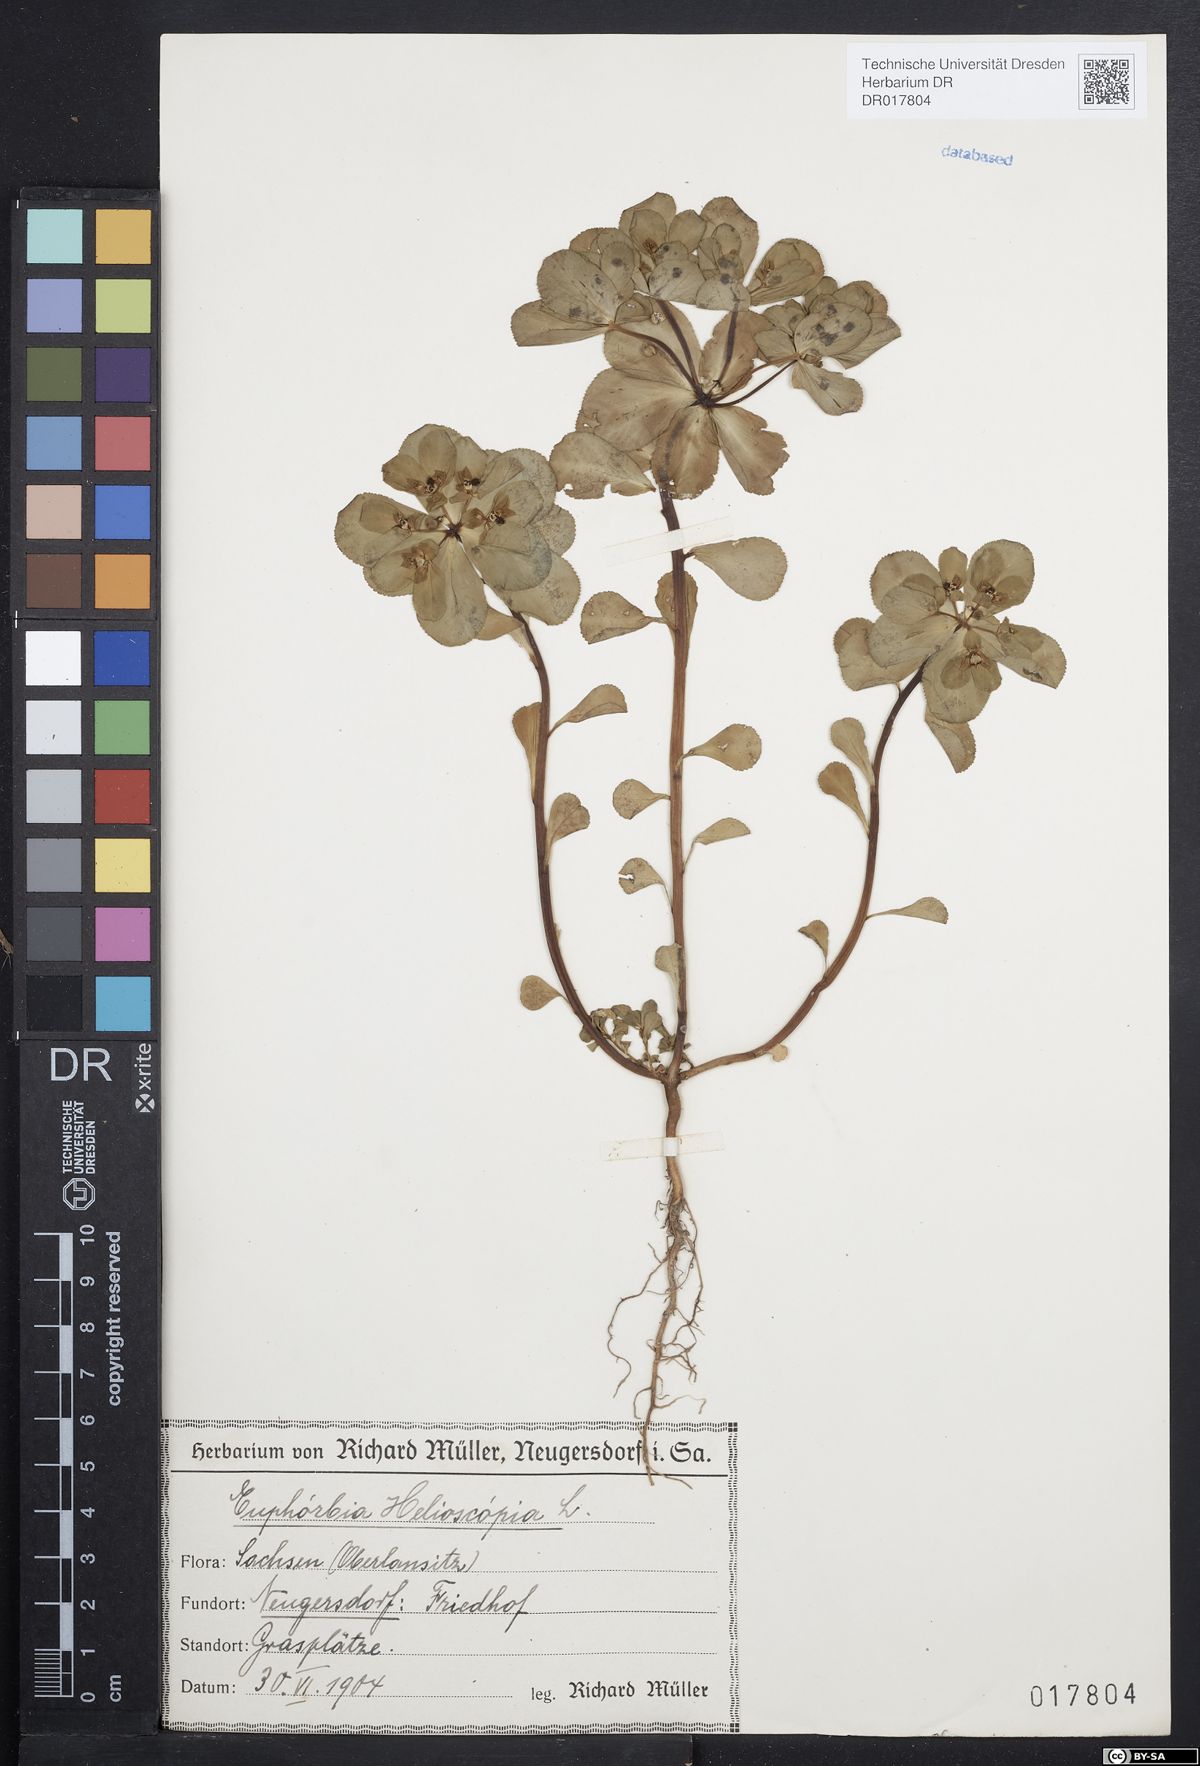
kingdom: Plantae
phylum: Tracheophyta
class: Magnoliopsida
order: Malpighiales
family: Euphorbiaceae
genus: Euphorbia
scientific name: Euphorbia helioscopia
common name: Sun spurge
